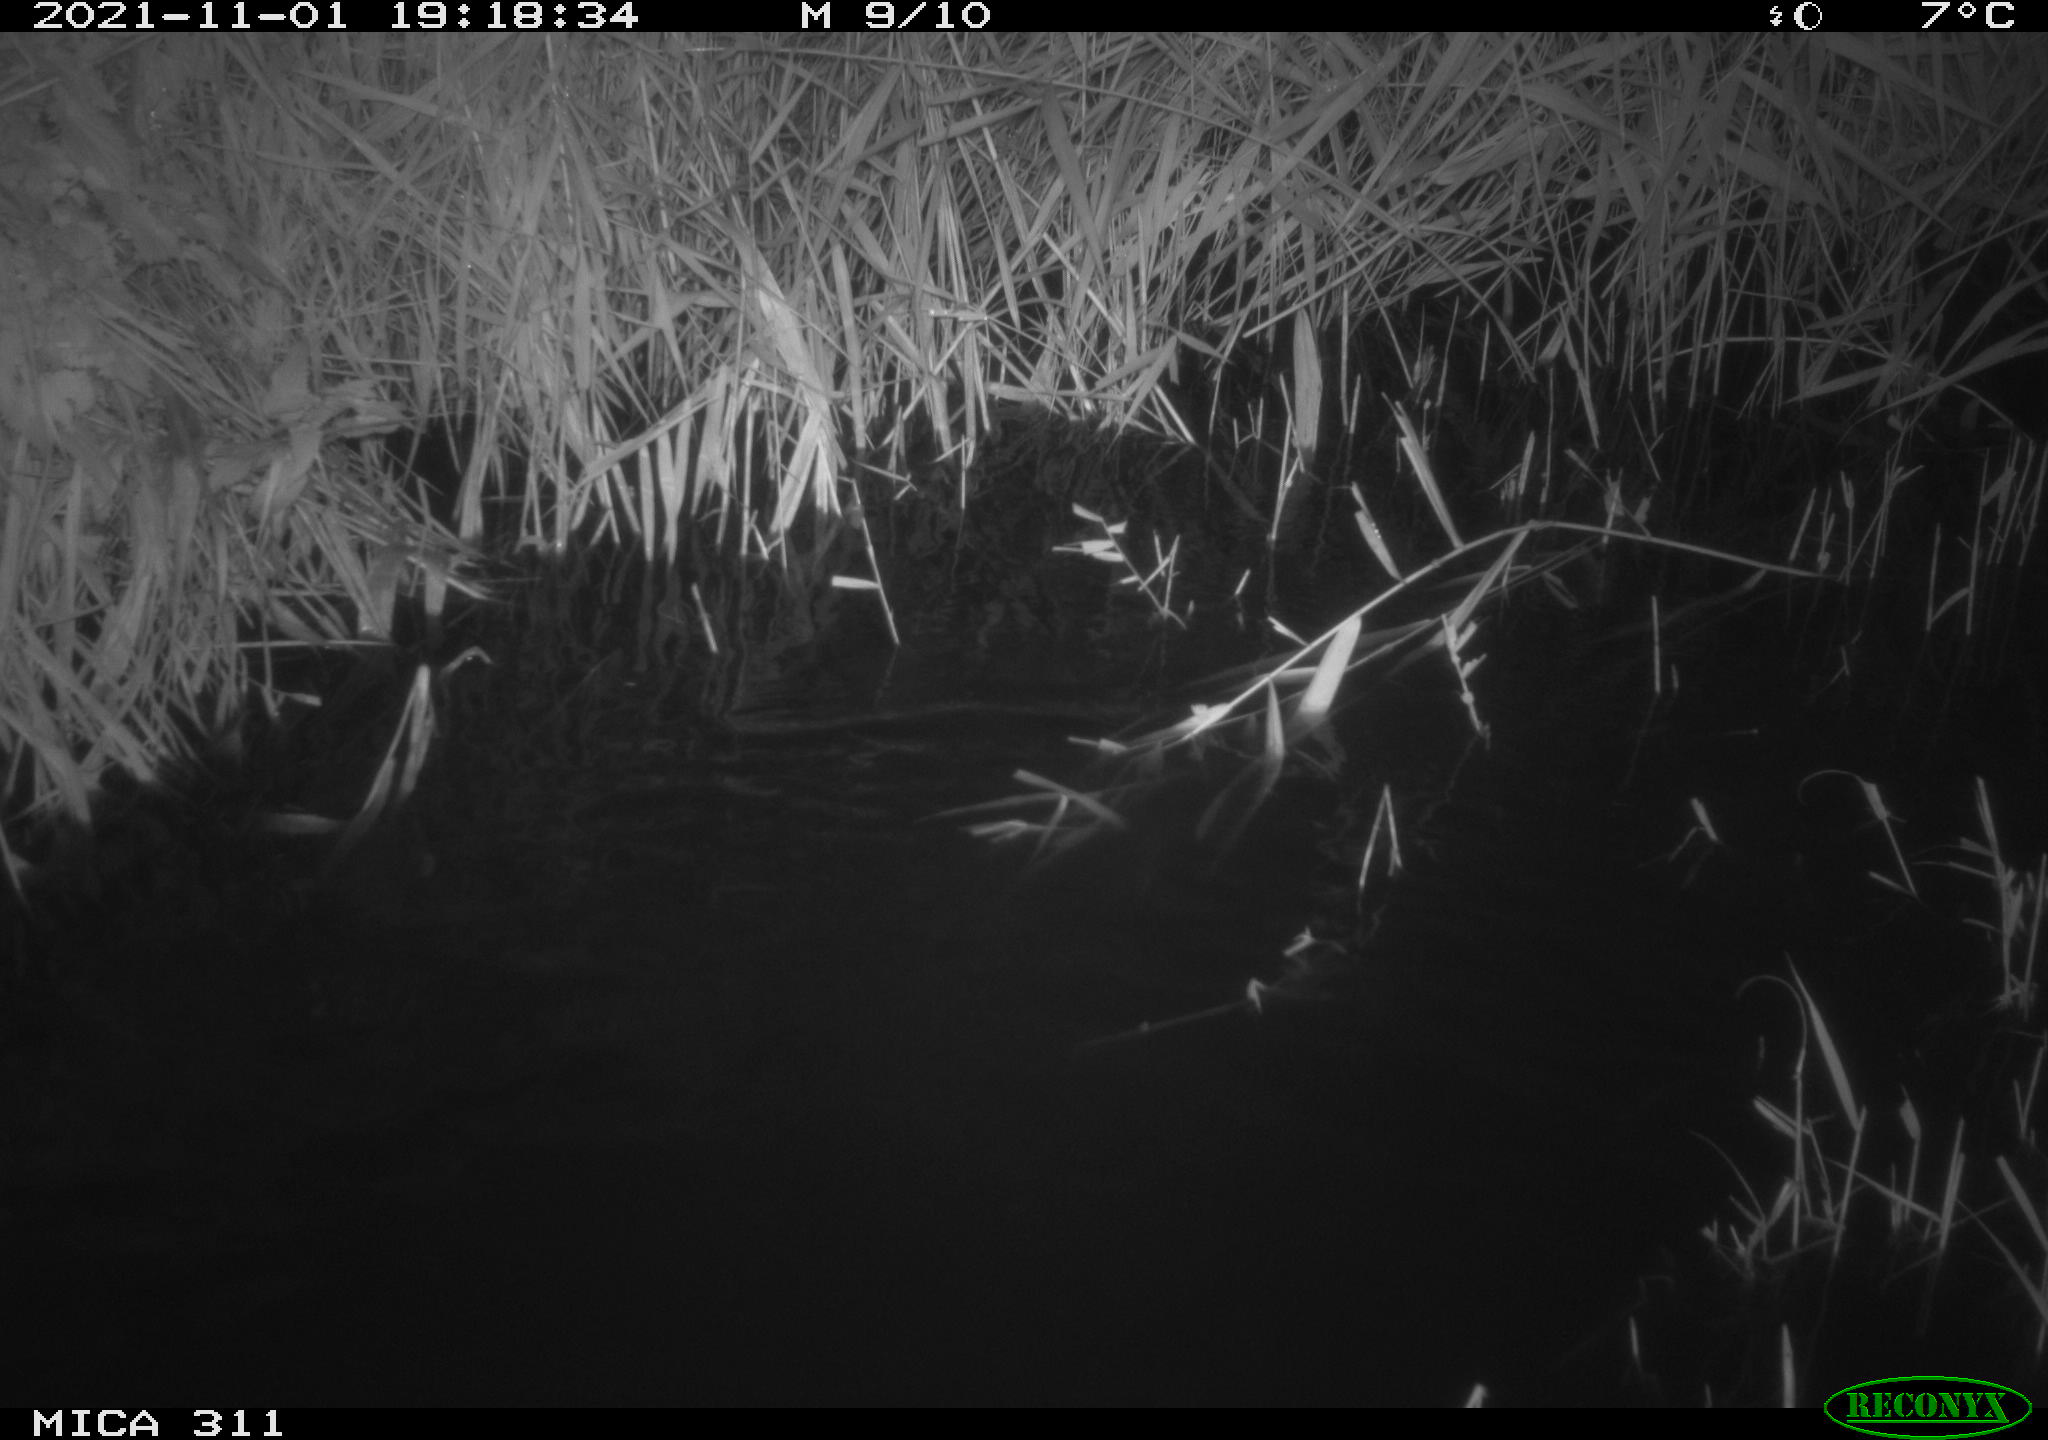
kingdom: Animalia
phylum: Chordata
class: Mammalia
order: Rodentia
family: Muridae
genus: Rattus
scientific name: Rattus norvegicus
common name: Brown rat
